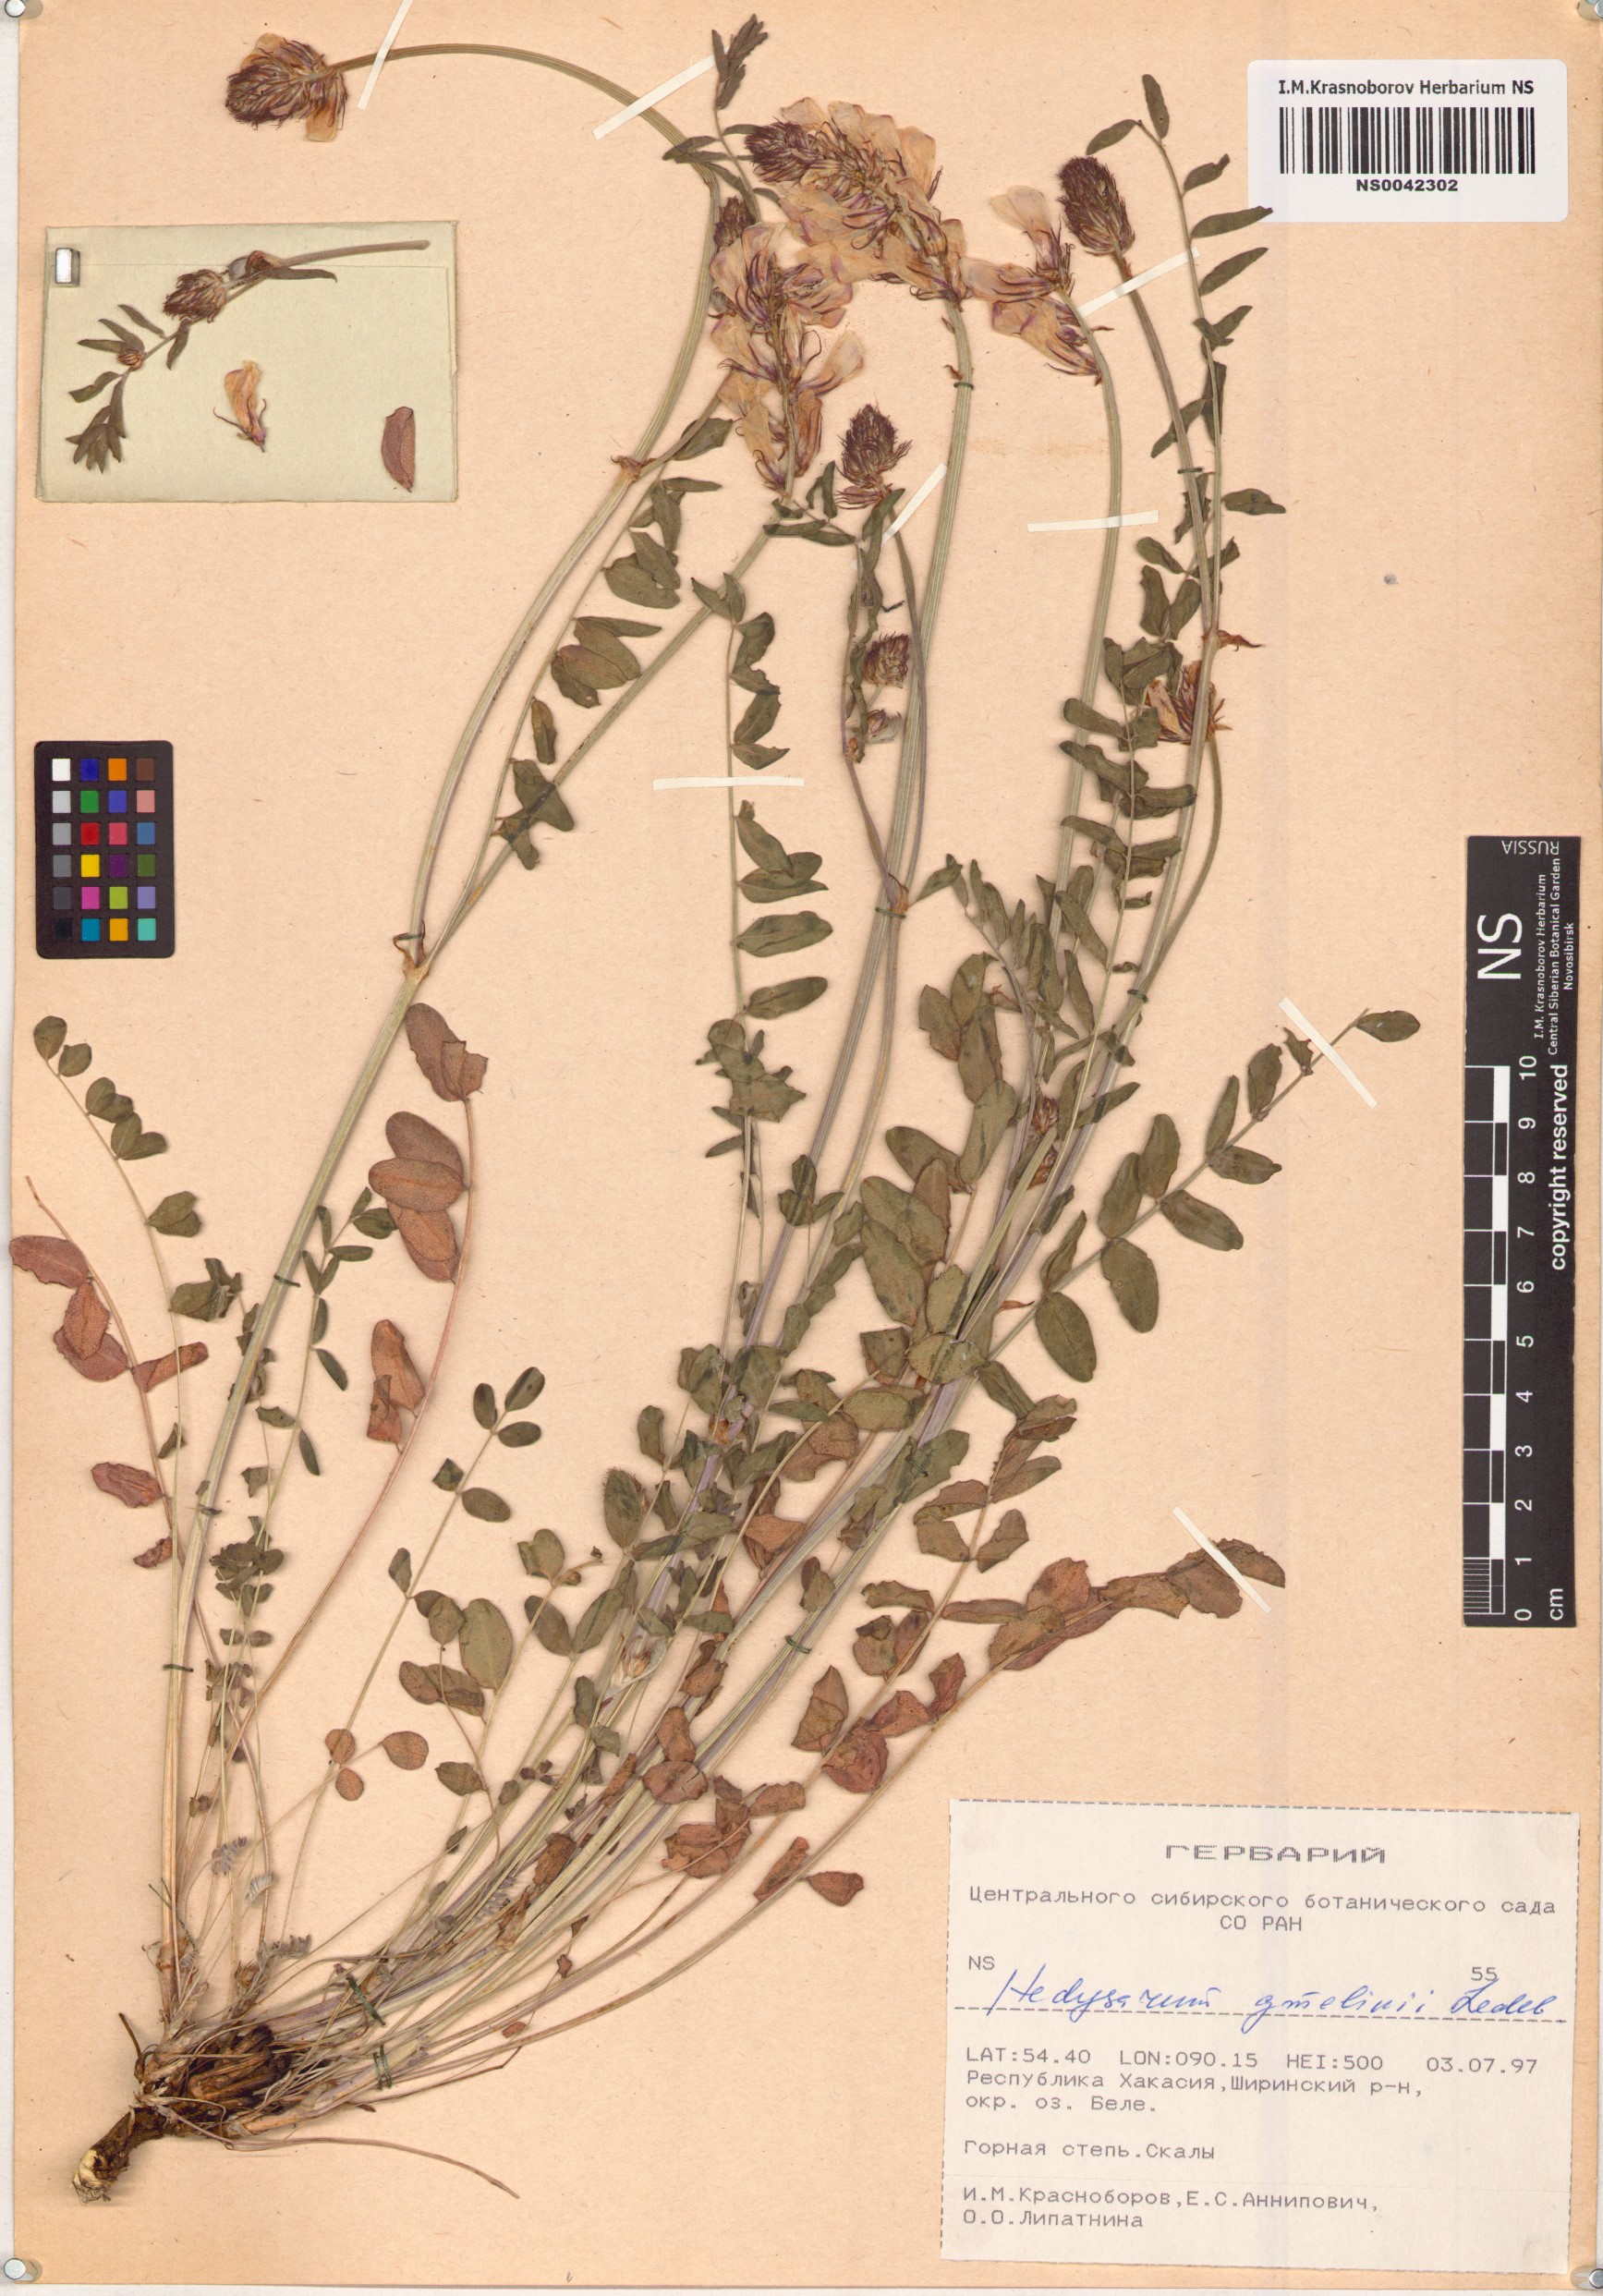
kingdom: Plantae
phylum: Tracheophyta
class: Magnoliopsida
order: Fabales
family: Fabaceae
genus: Hedysarum
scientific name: Hedysarum gmelinii
